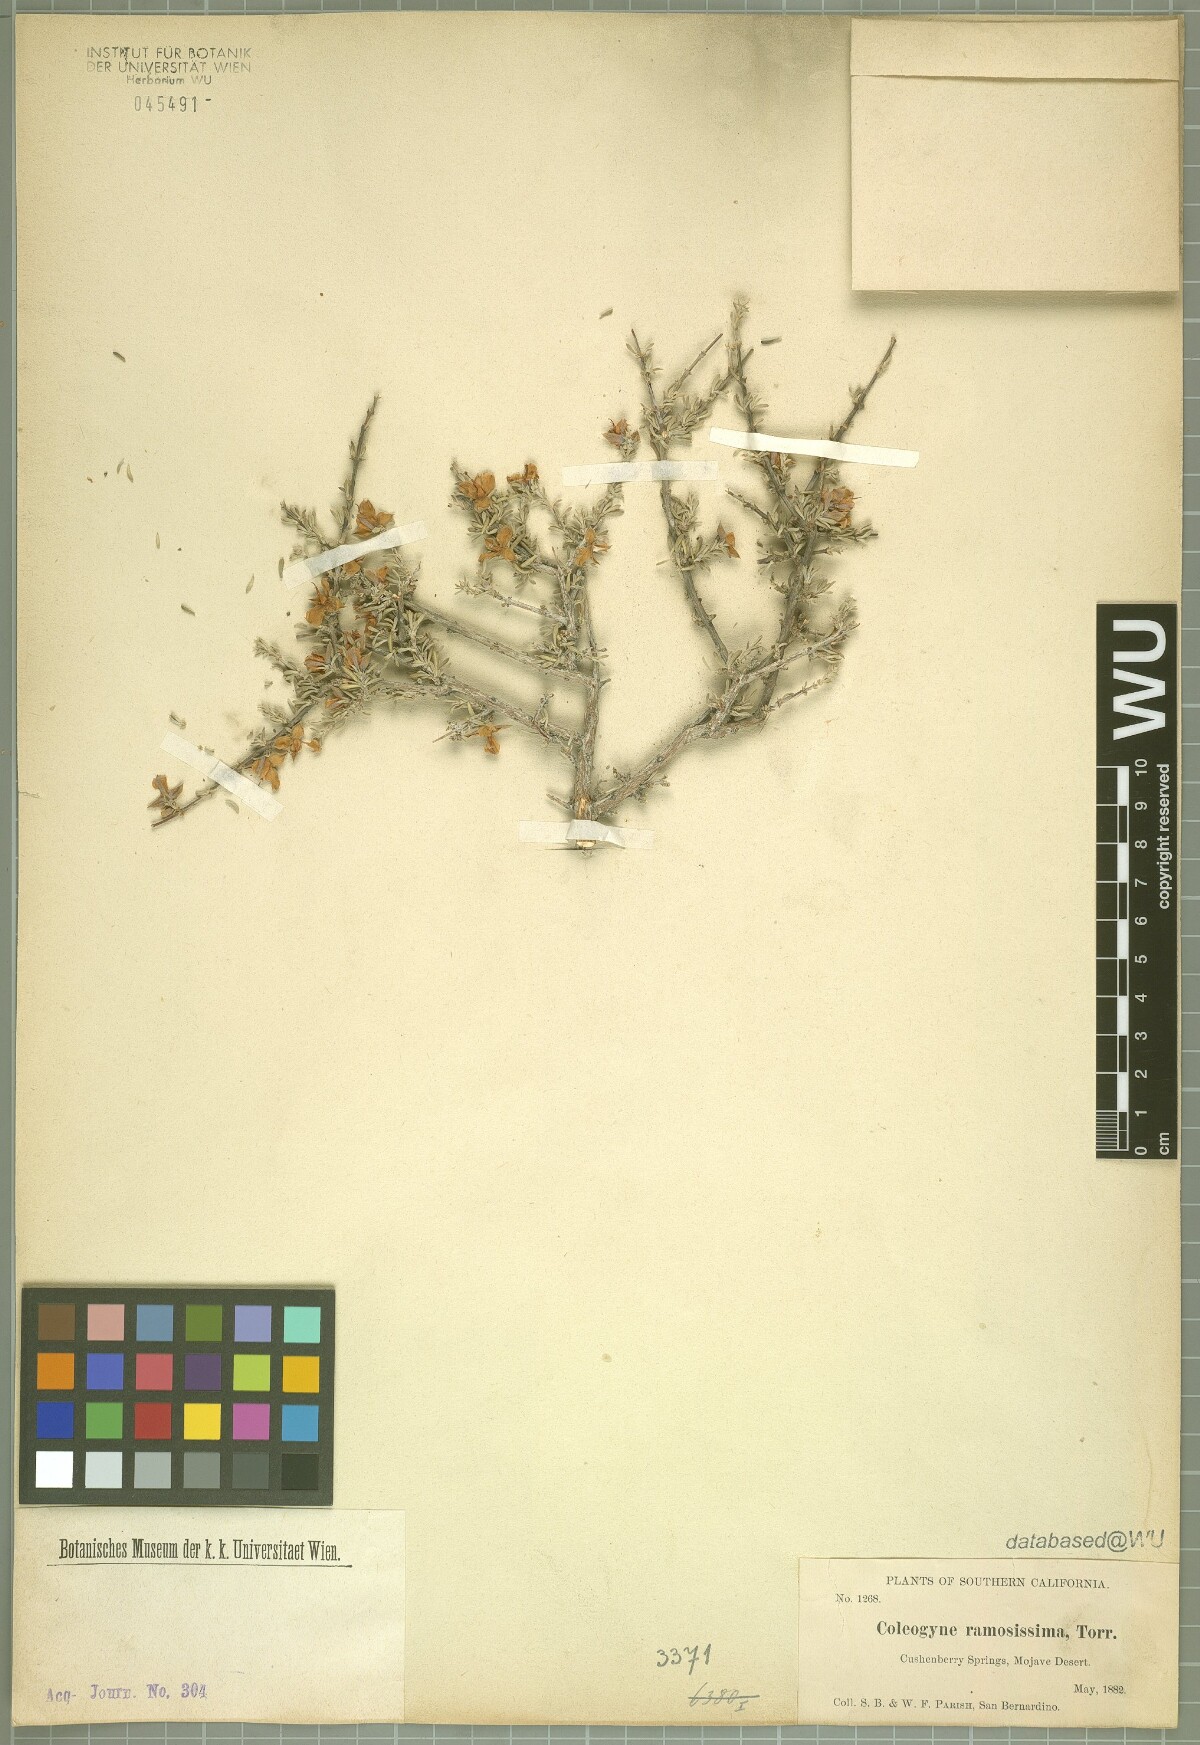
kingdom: Plantae
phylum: Tracheophyta
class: Magnoliopsida
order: Rosales
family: Rosaceae
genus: Coleogyne
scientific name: Coleogyne ramosissima
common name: Blackbrush
